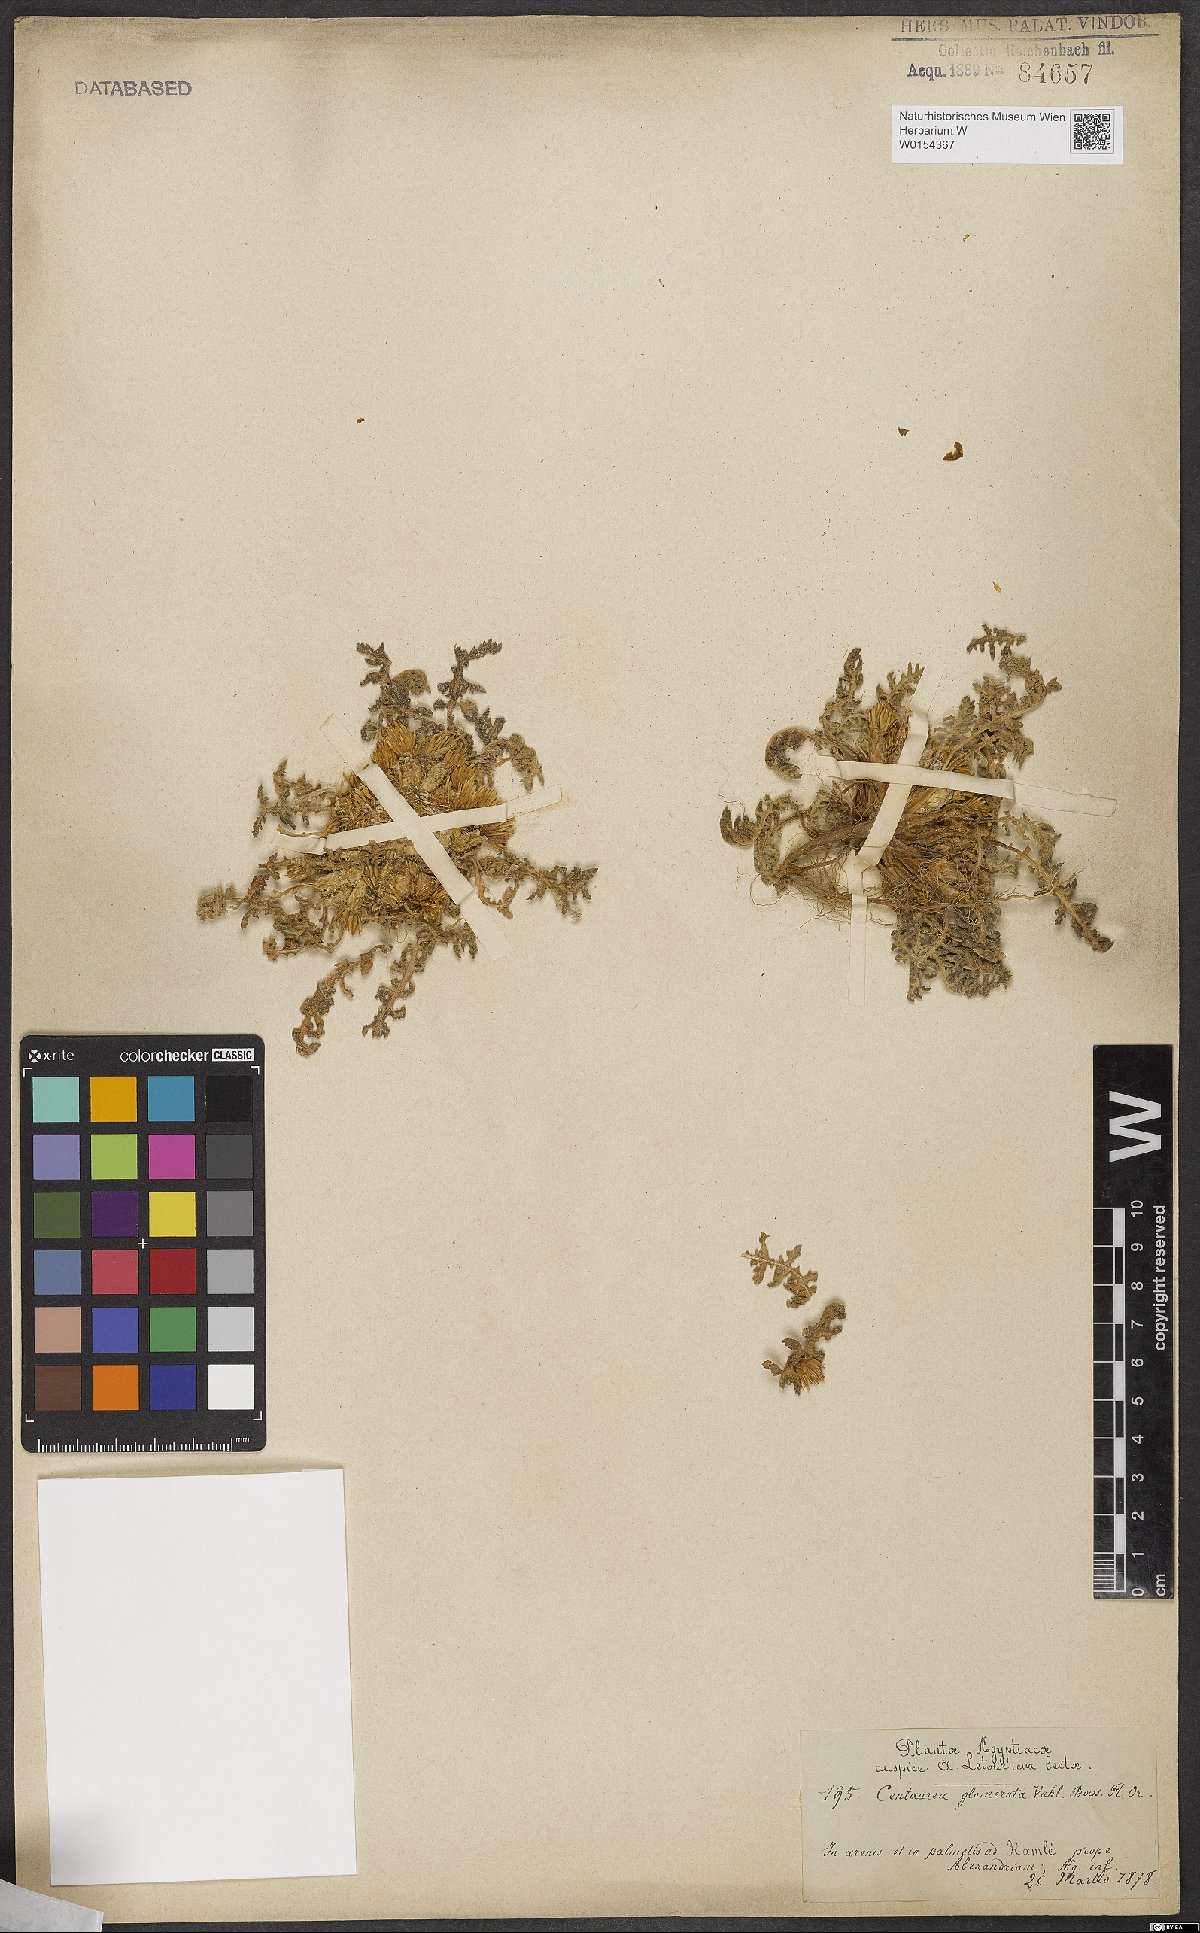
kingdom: Plantae
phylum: Tracheophyta
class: Magnoliopsida
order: Asterales
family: Asteraceae
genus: Centaurea
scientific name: Centaurea glomerata
